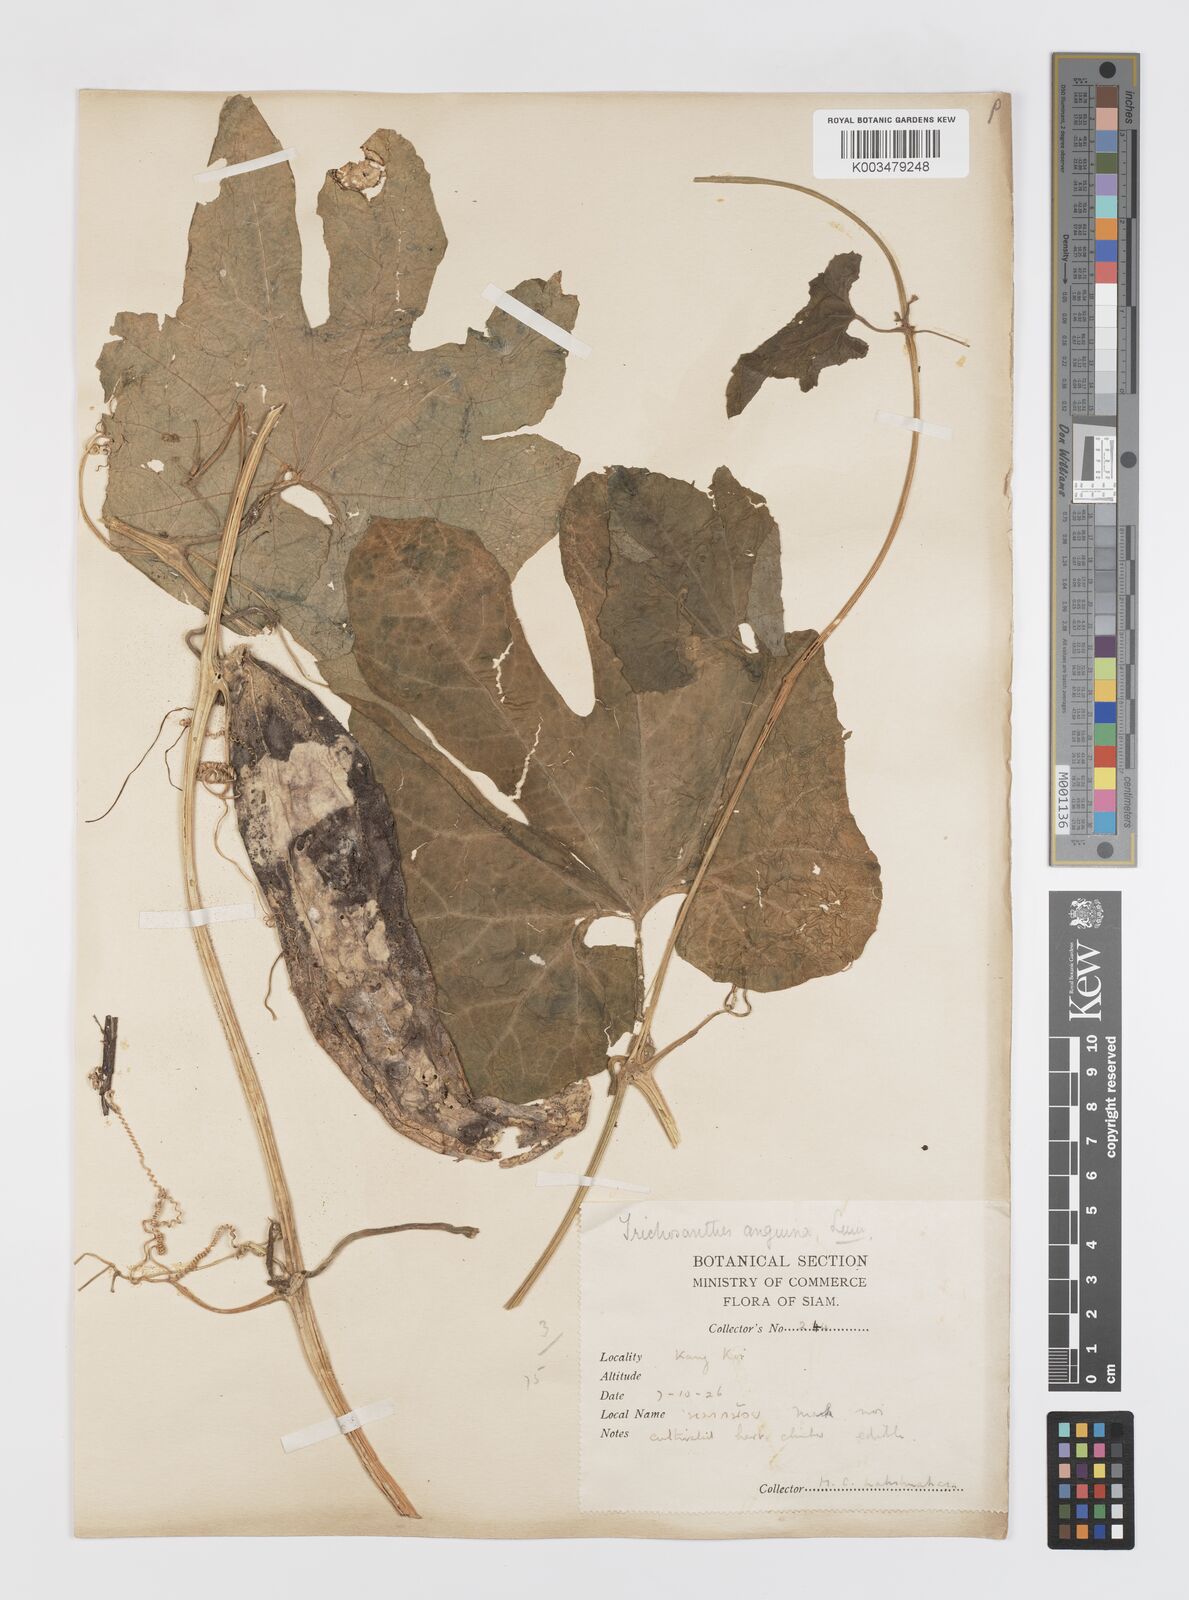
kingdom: Plantae
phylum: Tracheophyta
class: Magnoliopsida
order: Cucurbitales
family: Cucurbitaceae
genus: Trichosanthes
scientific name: Trichosanthes cucumerina
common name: Snakegourd
